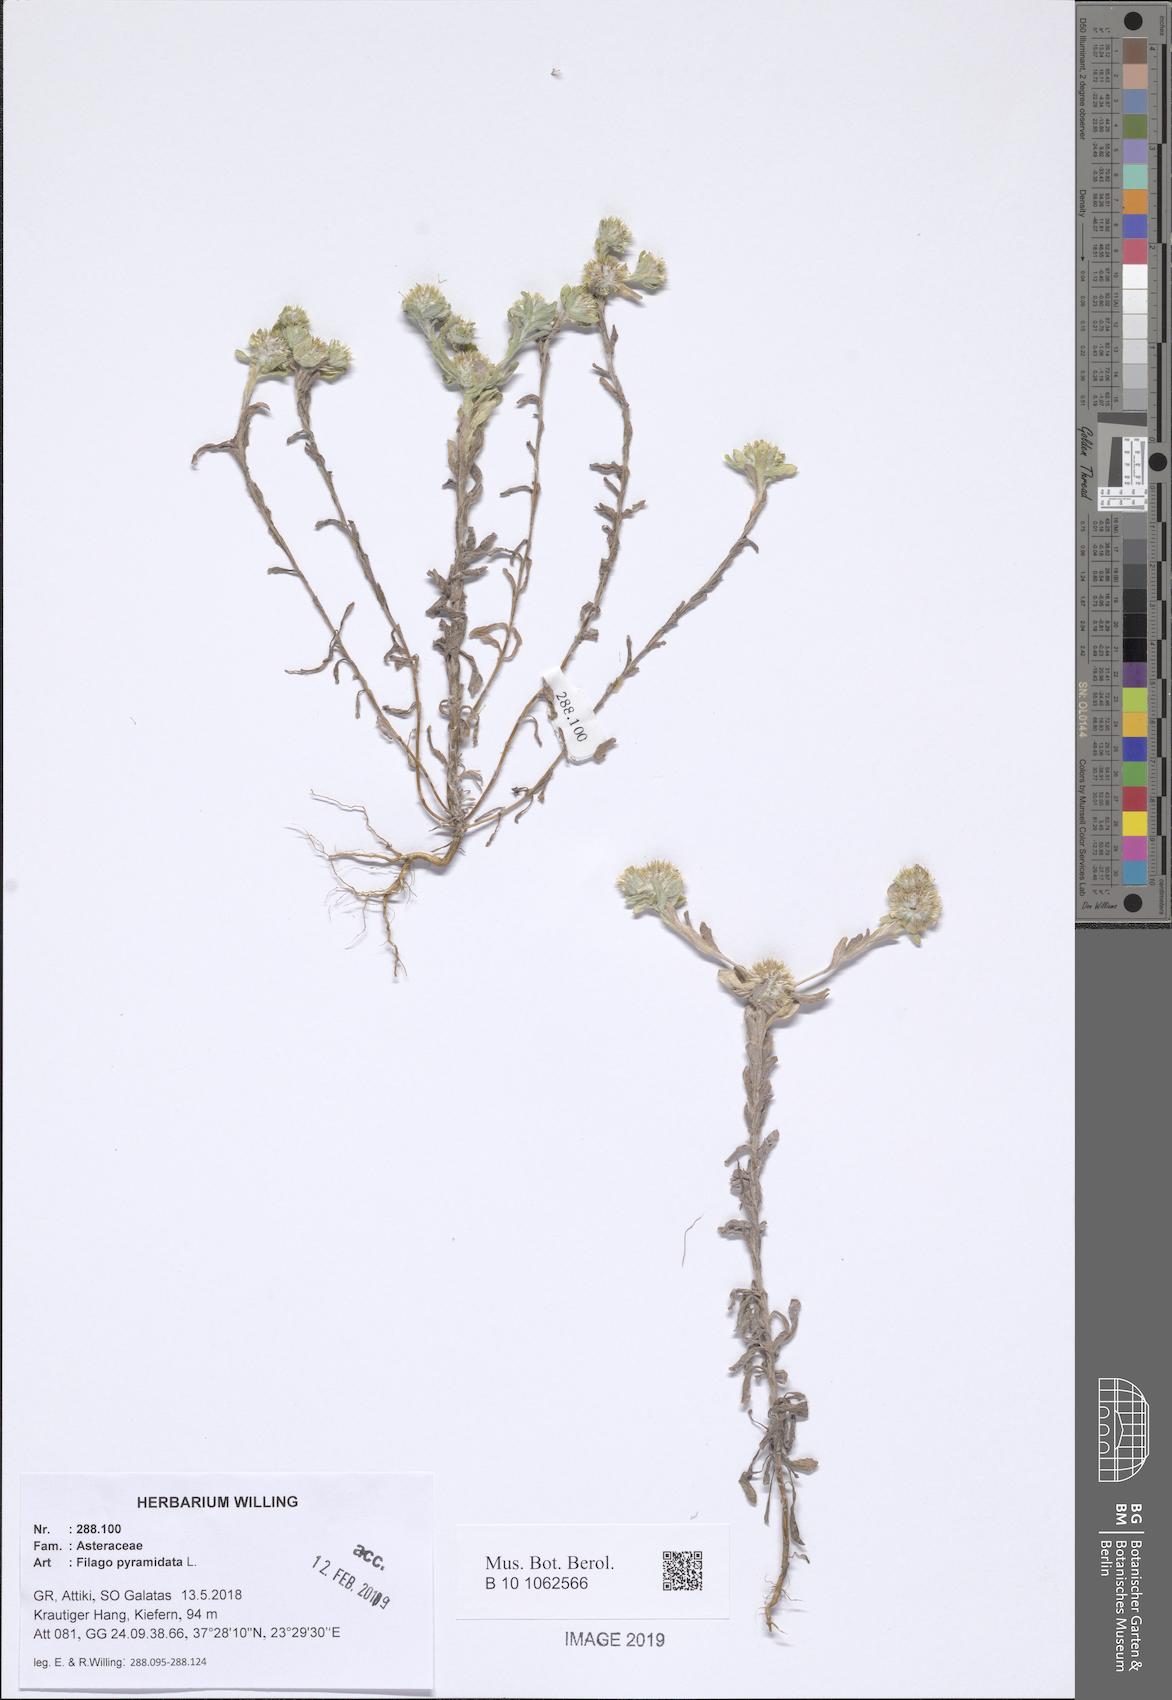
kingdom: Plantae
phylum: Tracheophyta
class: Magnoliopsida
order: Asterales
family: Asteraceae
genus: Filago
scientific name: Filago pyramidata
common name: Broad-leaved cudweed
